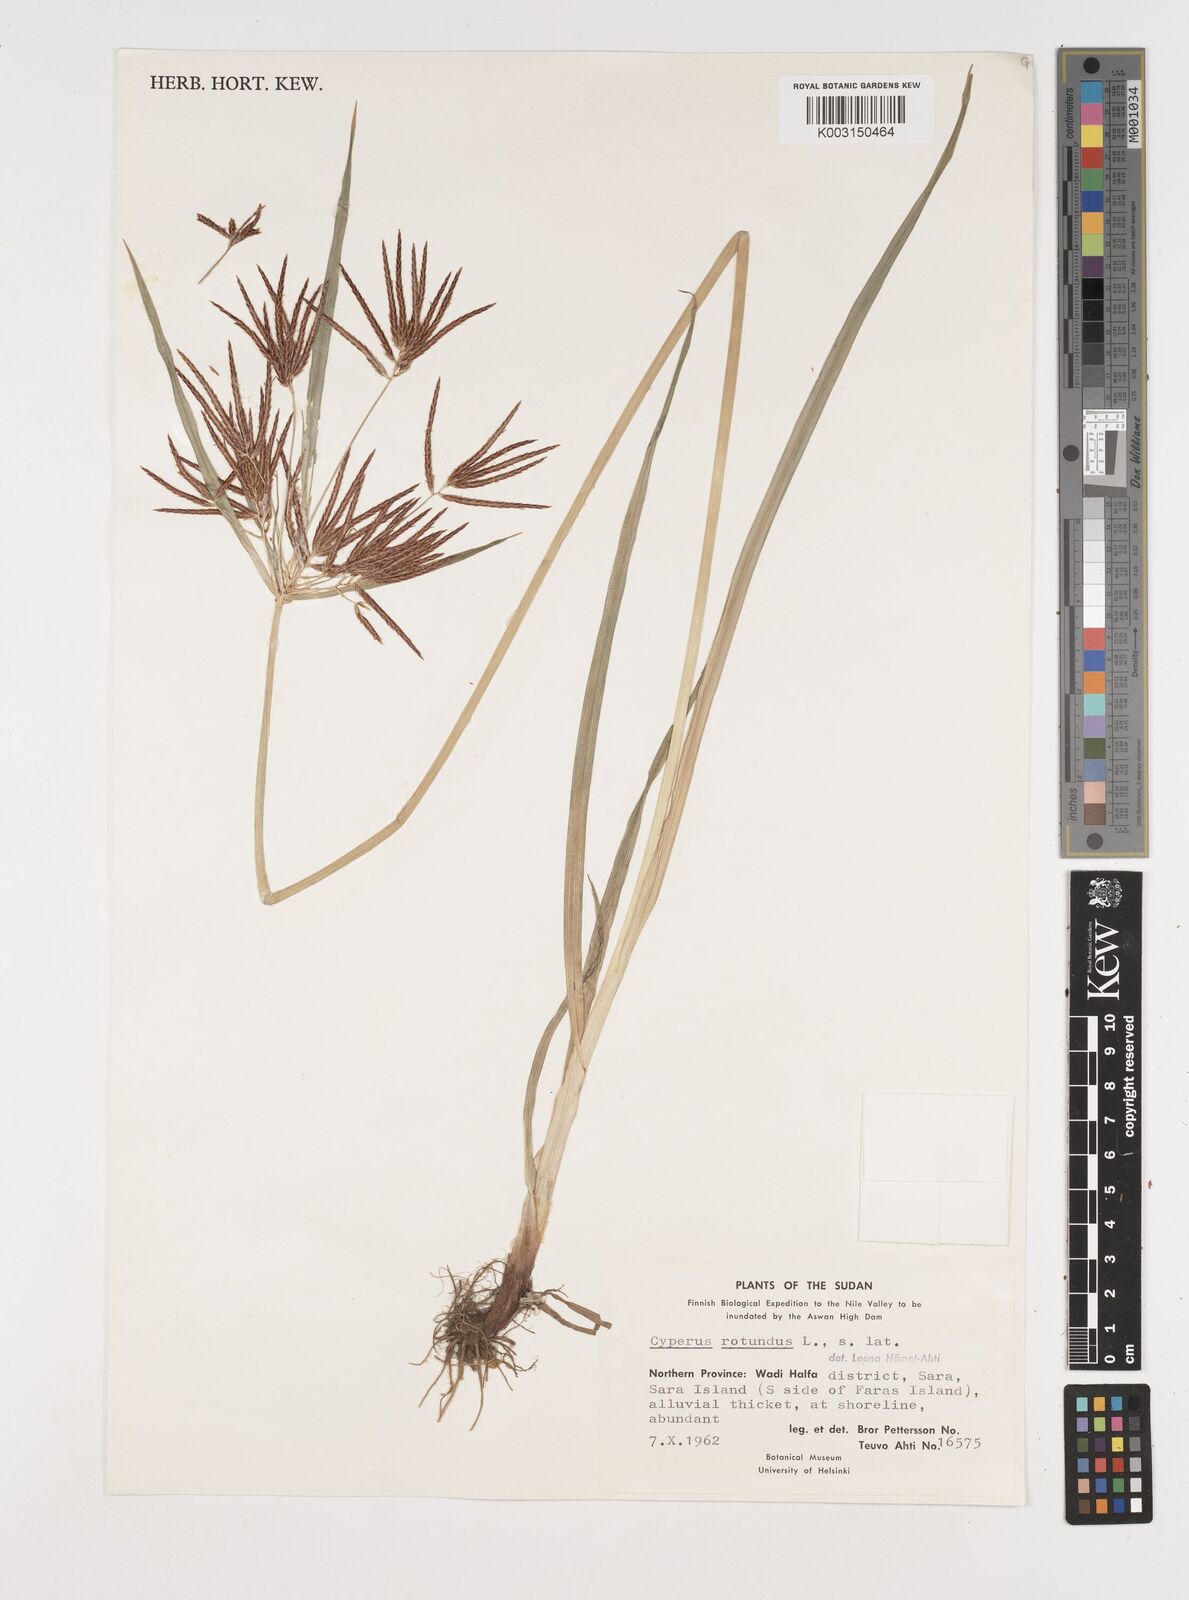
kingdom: Plantae
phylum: Tracheophyta
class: Liliopsida
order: Poales
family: Cyperaceae
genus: Cyperus
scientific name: Cyperus rotundus
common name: Nutgrass
